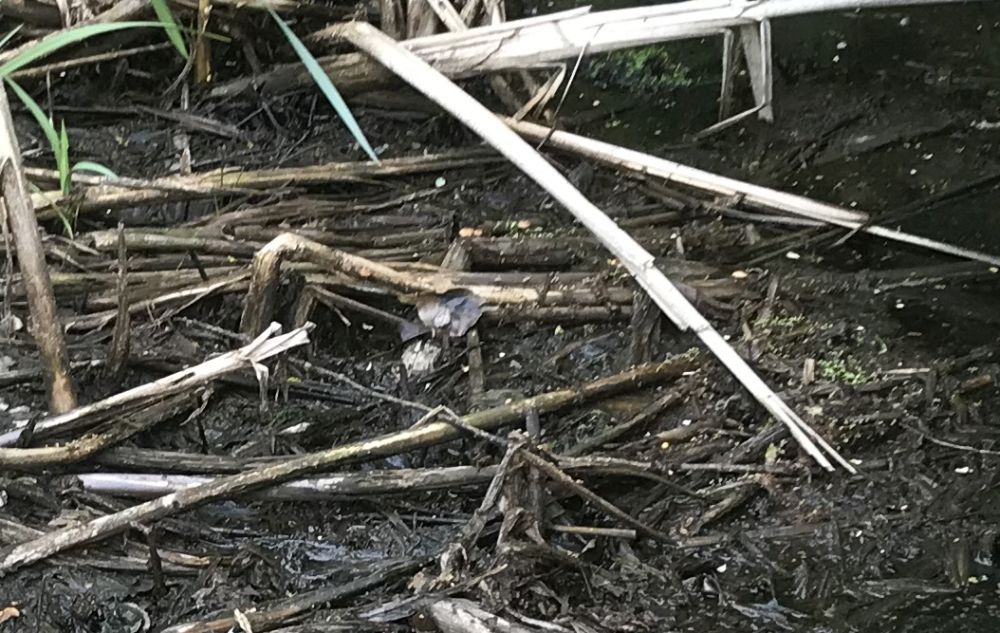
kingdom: Fungi
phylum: Basidiomycota
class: Agaricomycetes
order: Agaricales
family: Psathyrellaceae
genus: Psathyrella
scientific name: Psathyrella
